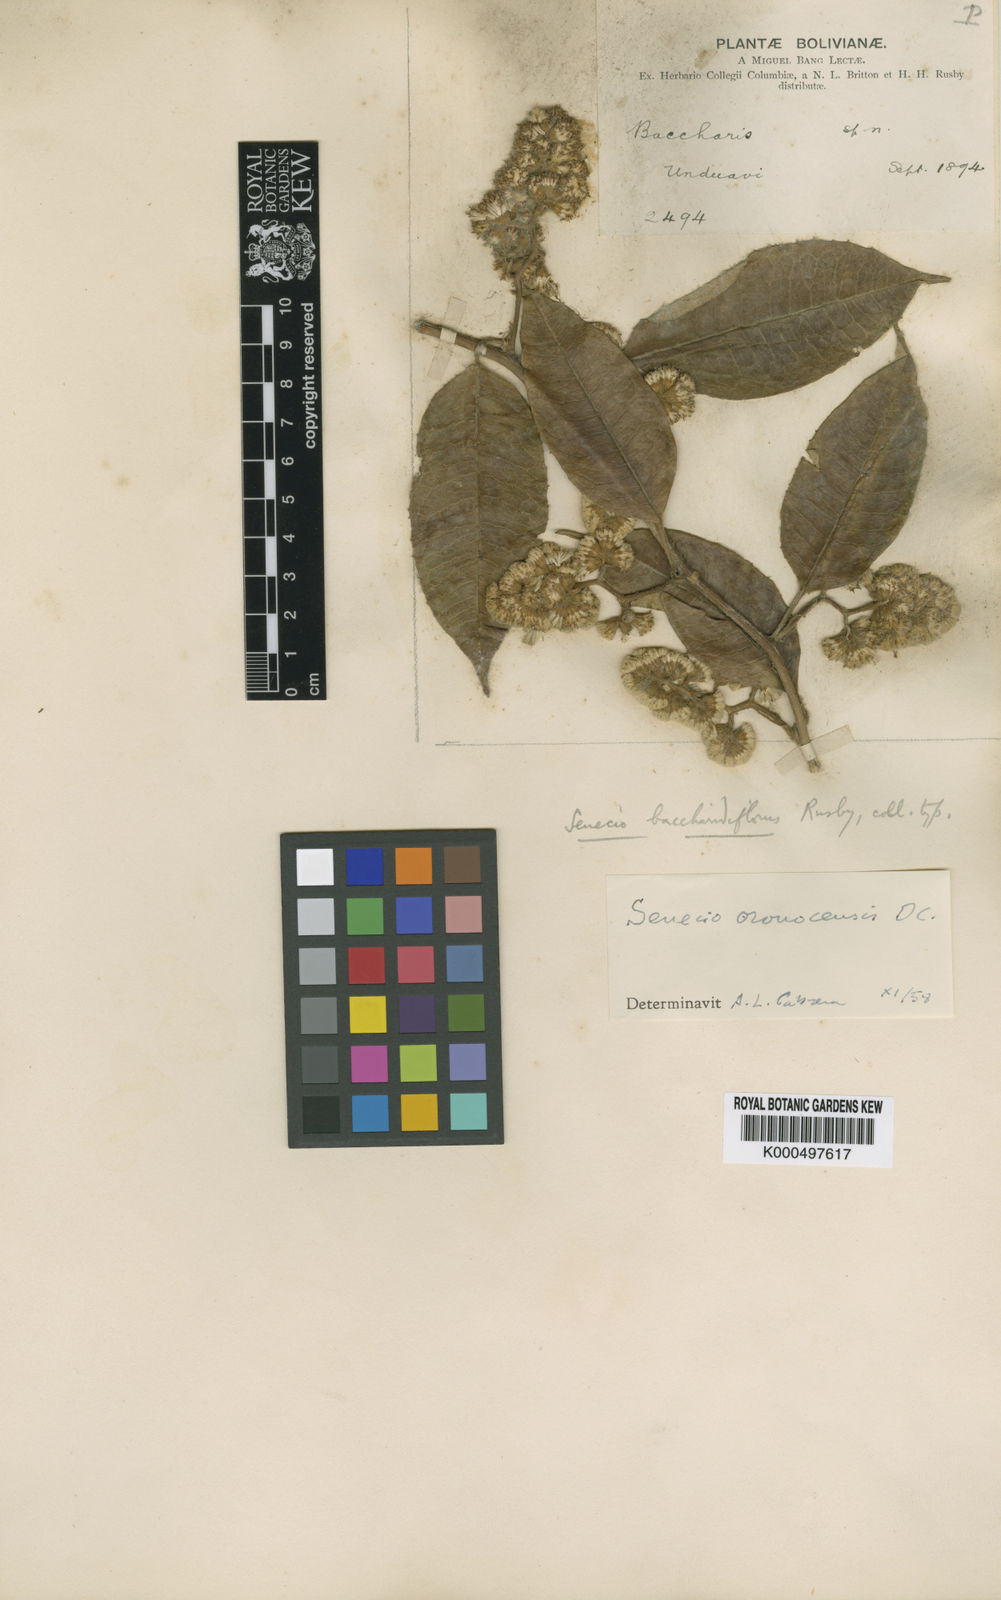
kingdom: Plantae
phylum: Tracheophyta
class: Magnoliopsida
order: Asterales
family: Asteraceae
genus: Pentacalia
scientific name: Pentacalia oronocensis
